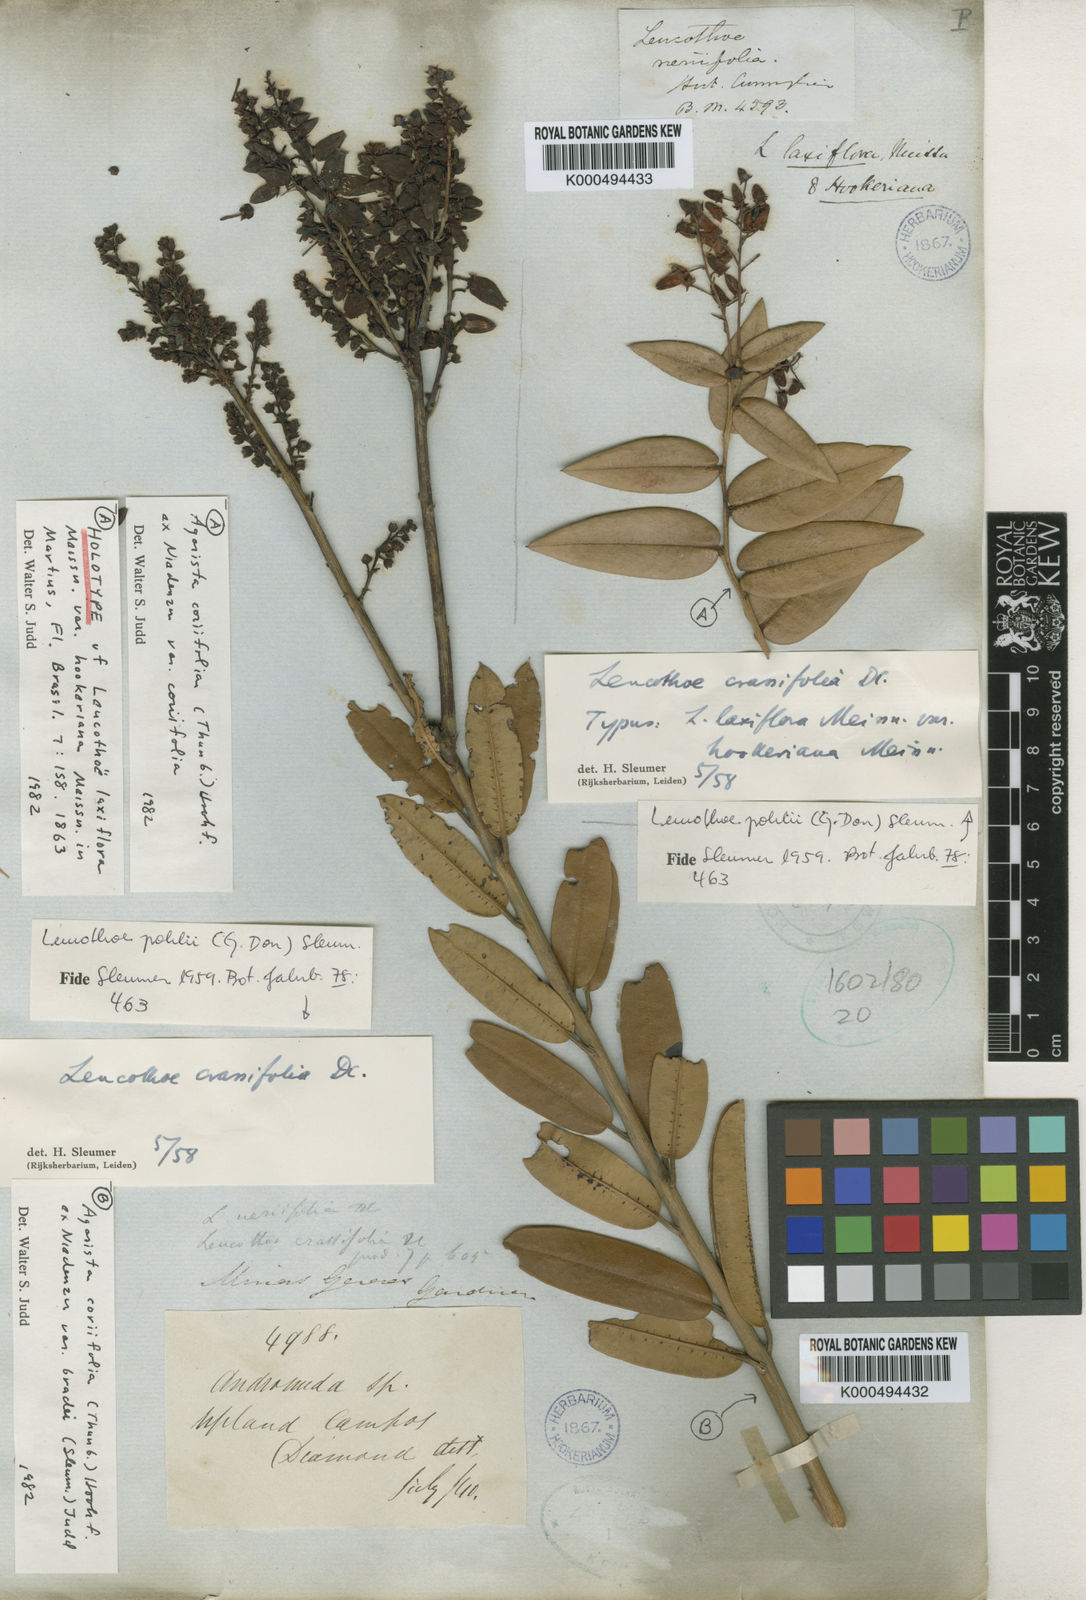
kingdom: Plantae
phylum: Tracheophyta
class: Magnoliopsida
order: Ericales
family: Ericaceae
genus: Agarista
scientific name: Agarista coriifolia
